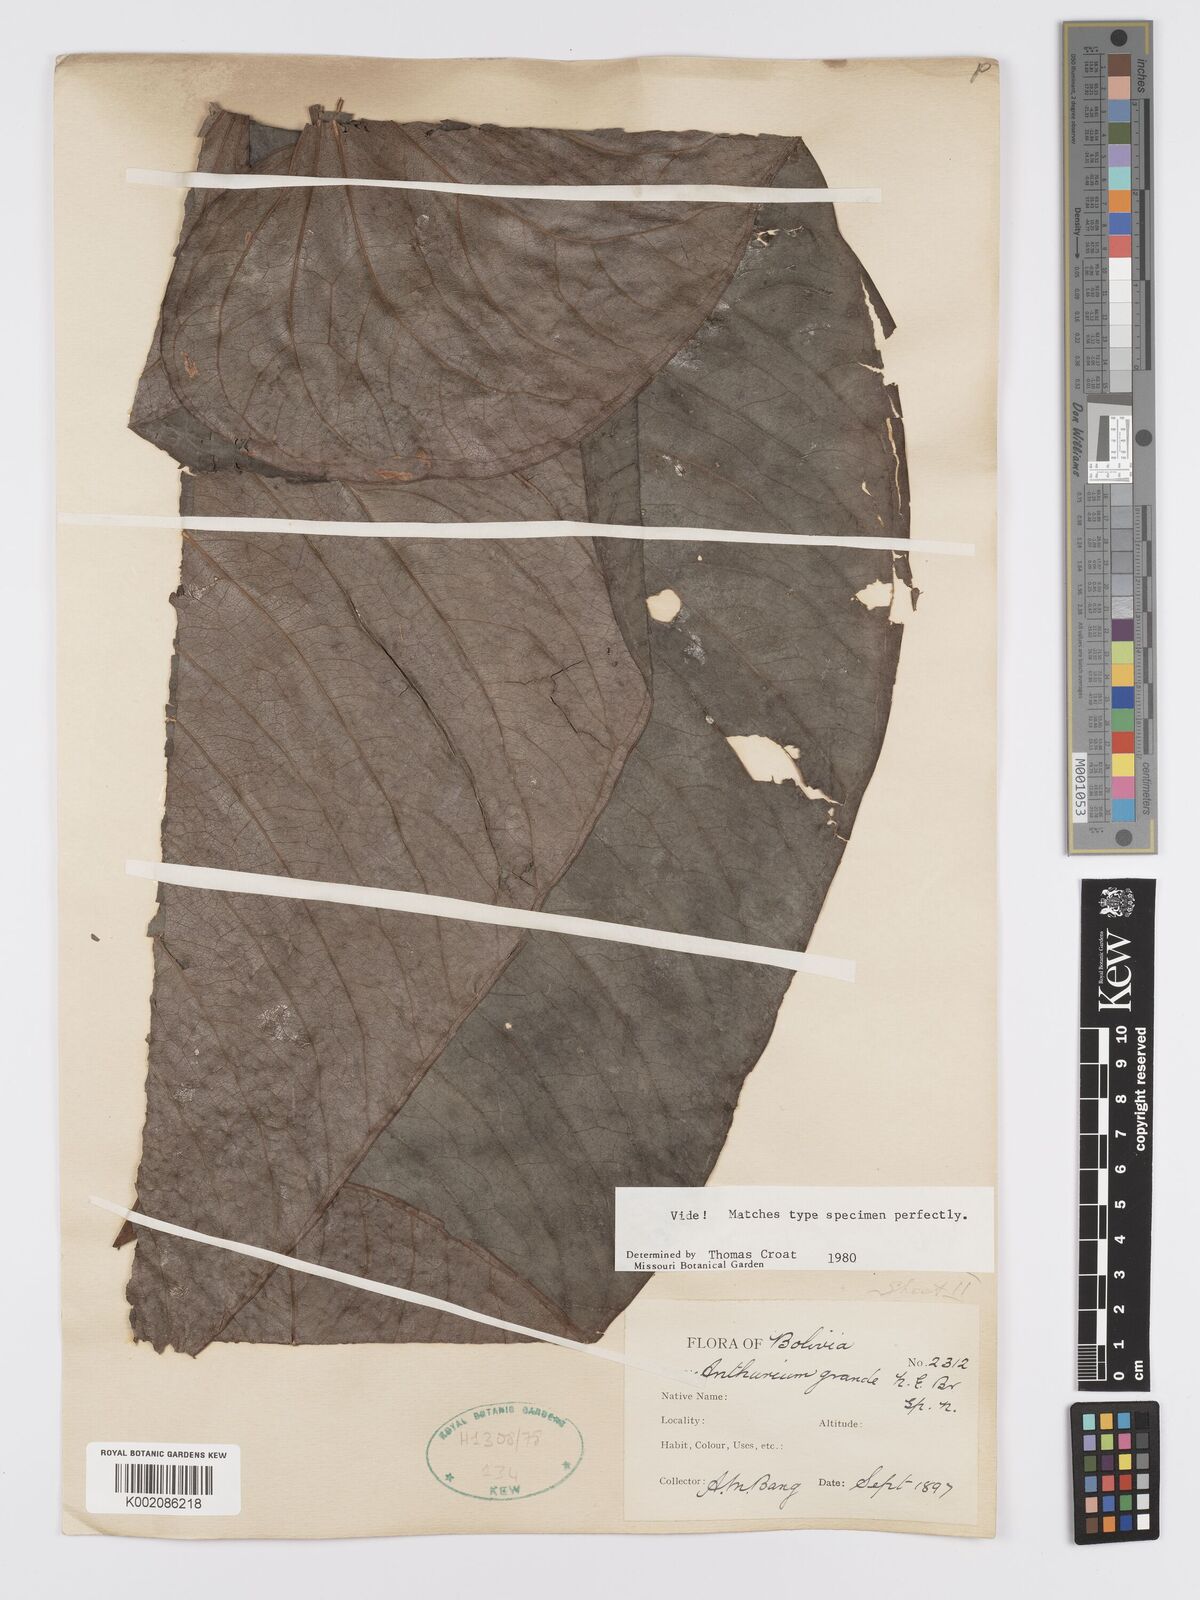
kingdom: Plantae
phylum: Tracheophyta
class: Liliopsida
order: Alismatales
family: Araceae
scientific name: Araceae
